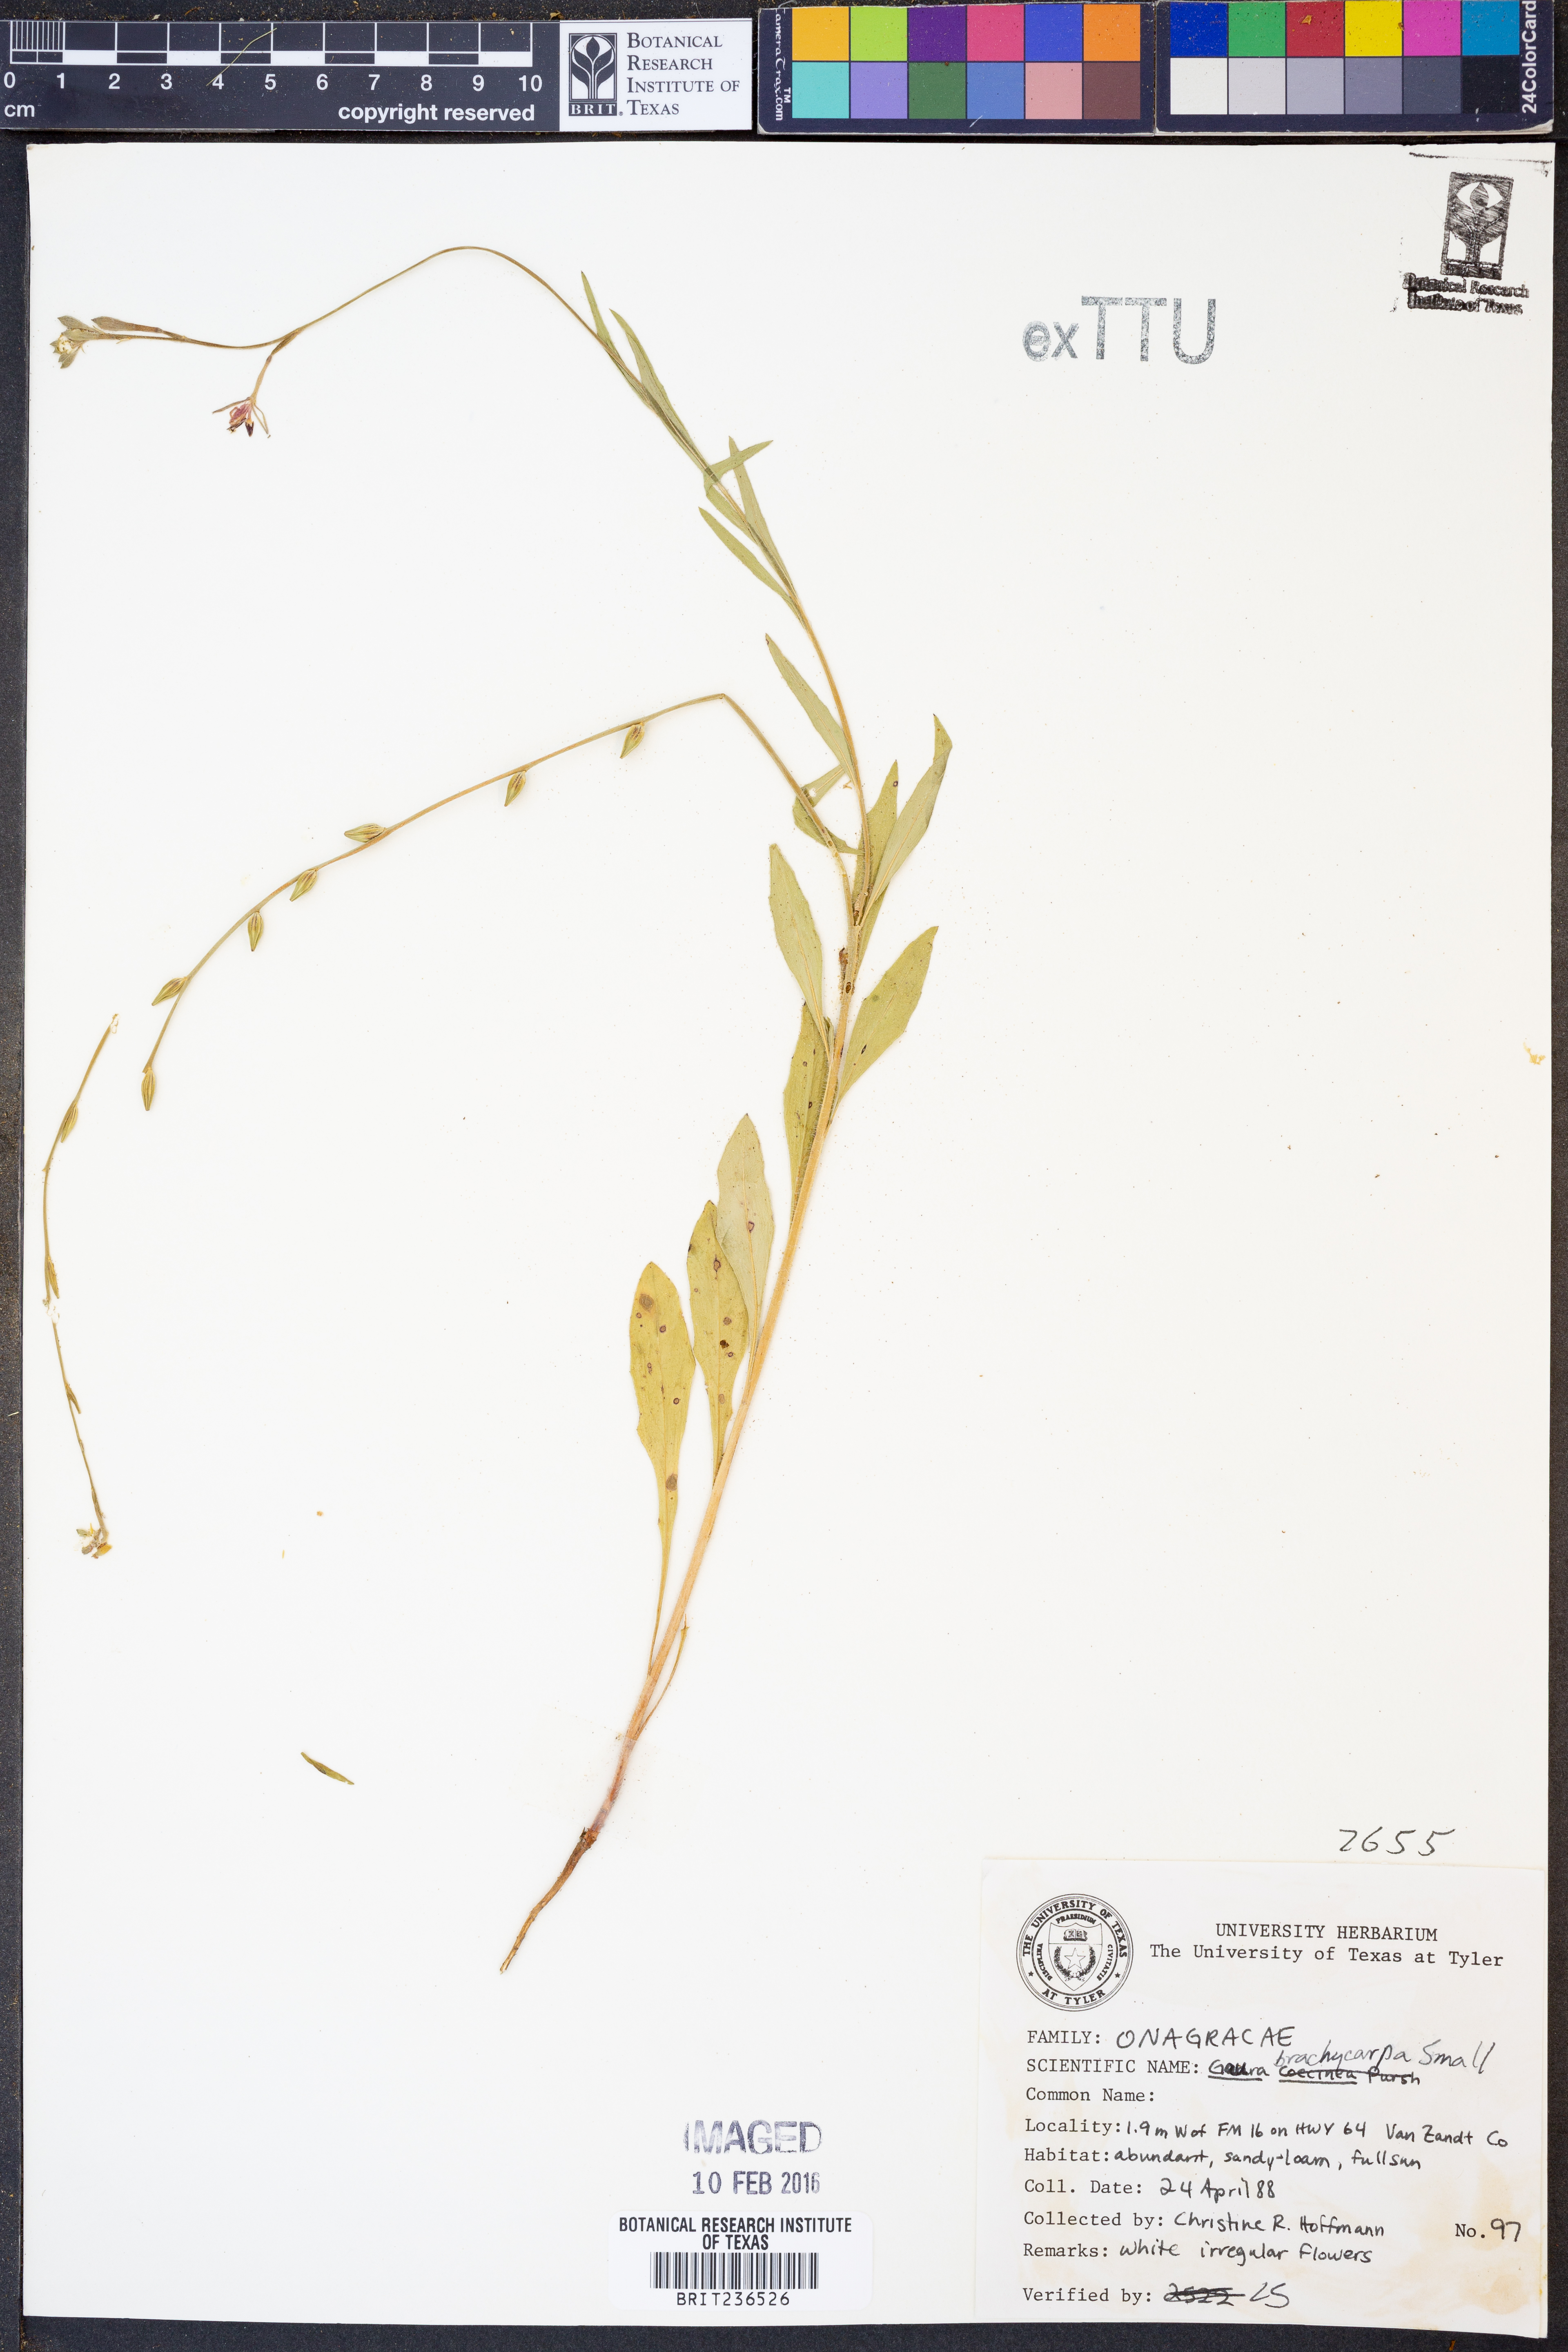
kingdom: Plantae
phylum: Tracheophyta
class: Magnoliopsida
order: Myrtales
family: Onagraceae
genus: Oenothera
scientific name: Oenothera patriciae
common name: Plains beeblossom
